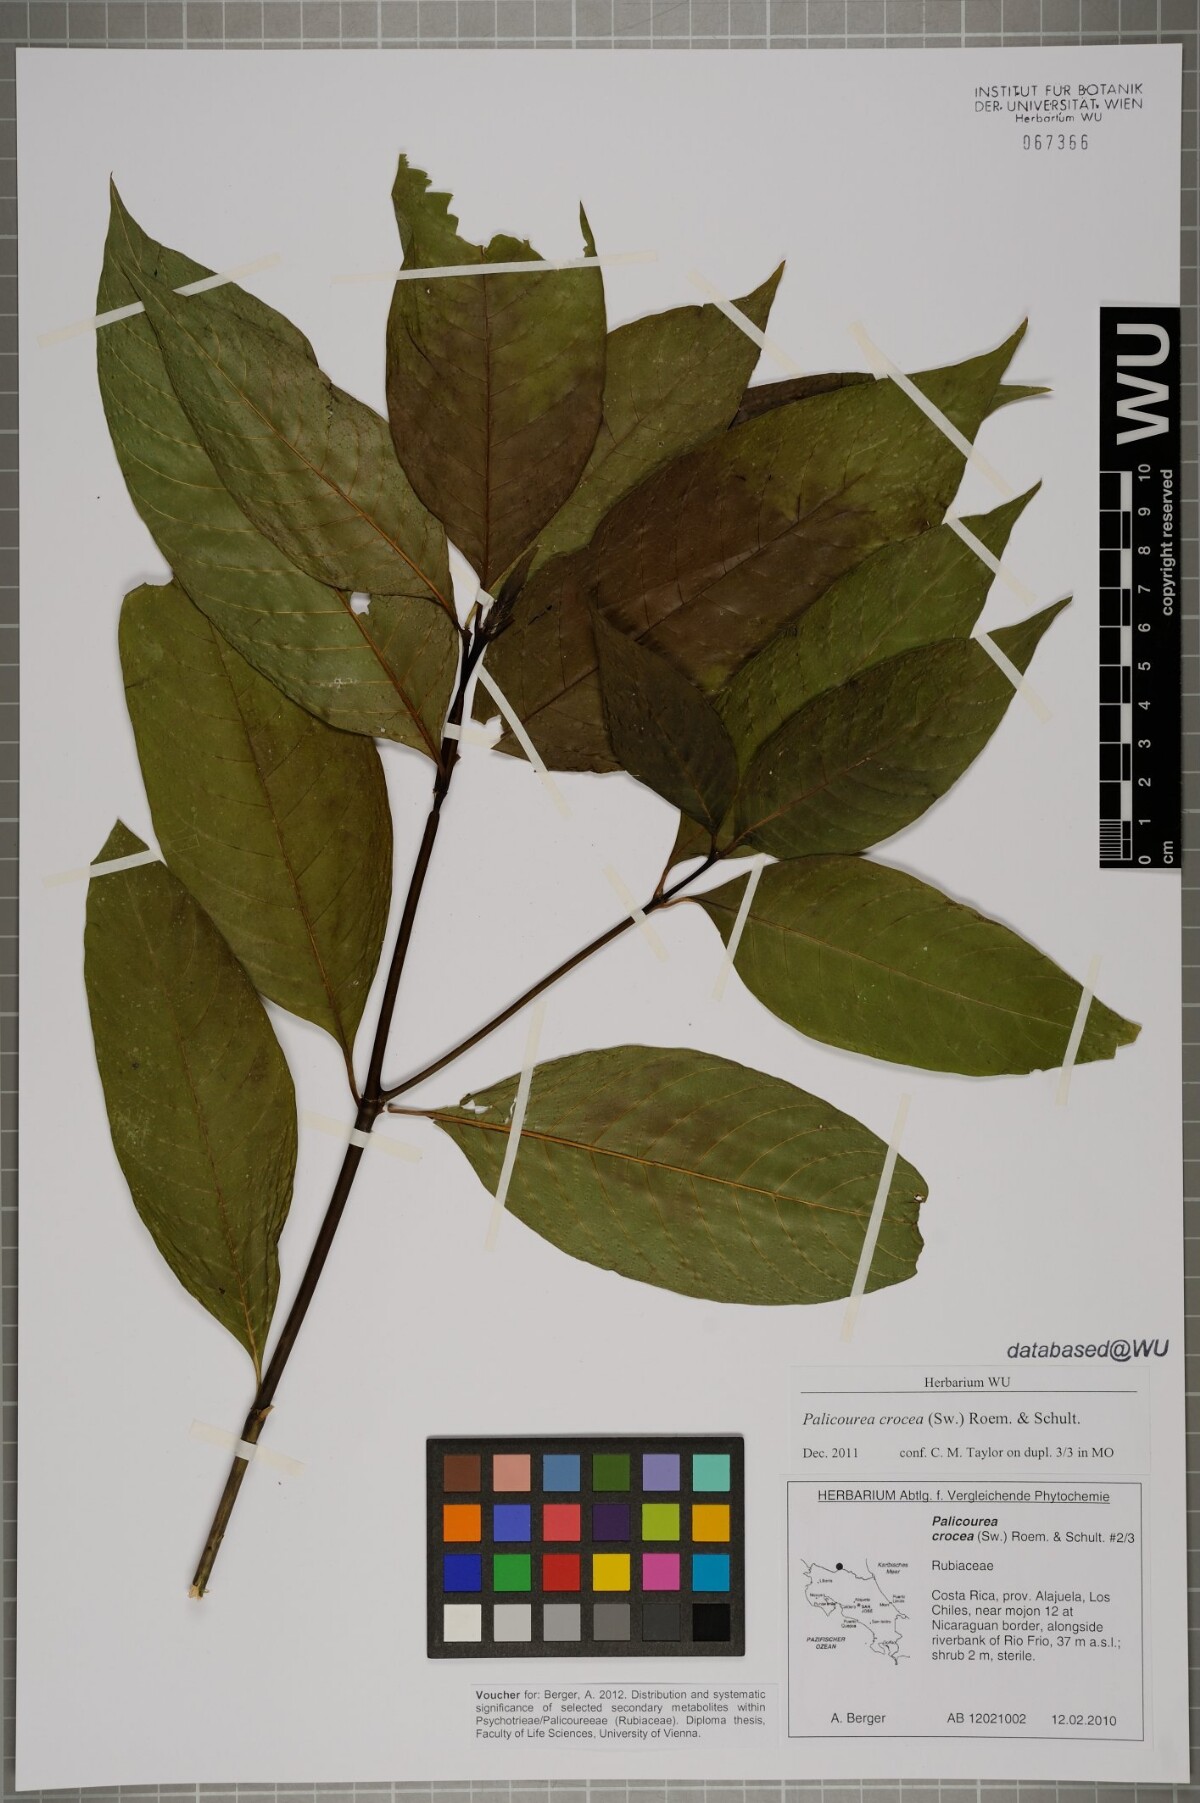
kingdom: Plantae
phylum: Tracheophyta
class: Magnoliopsida
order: Gentianales
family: Rubiaceae
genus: Palicourea
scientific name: Palicourea crocea
